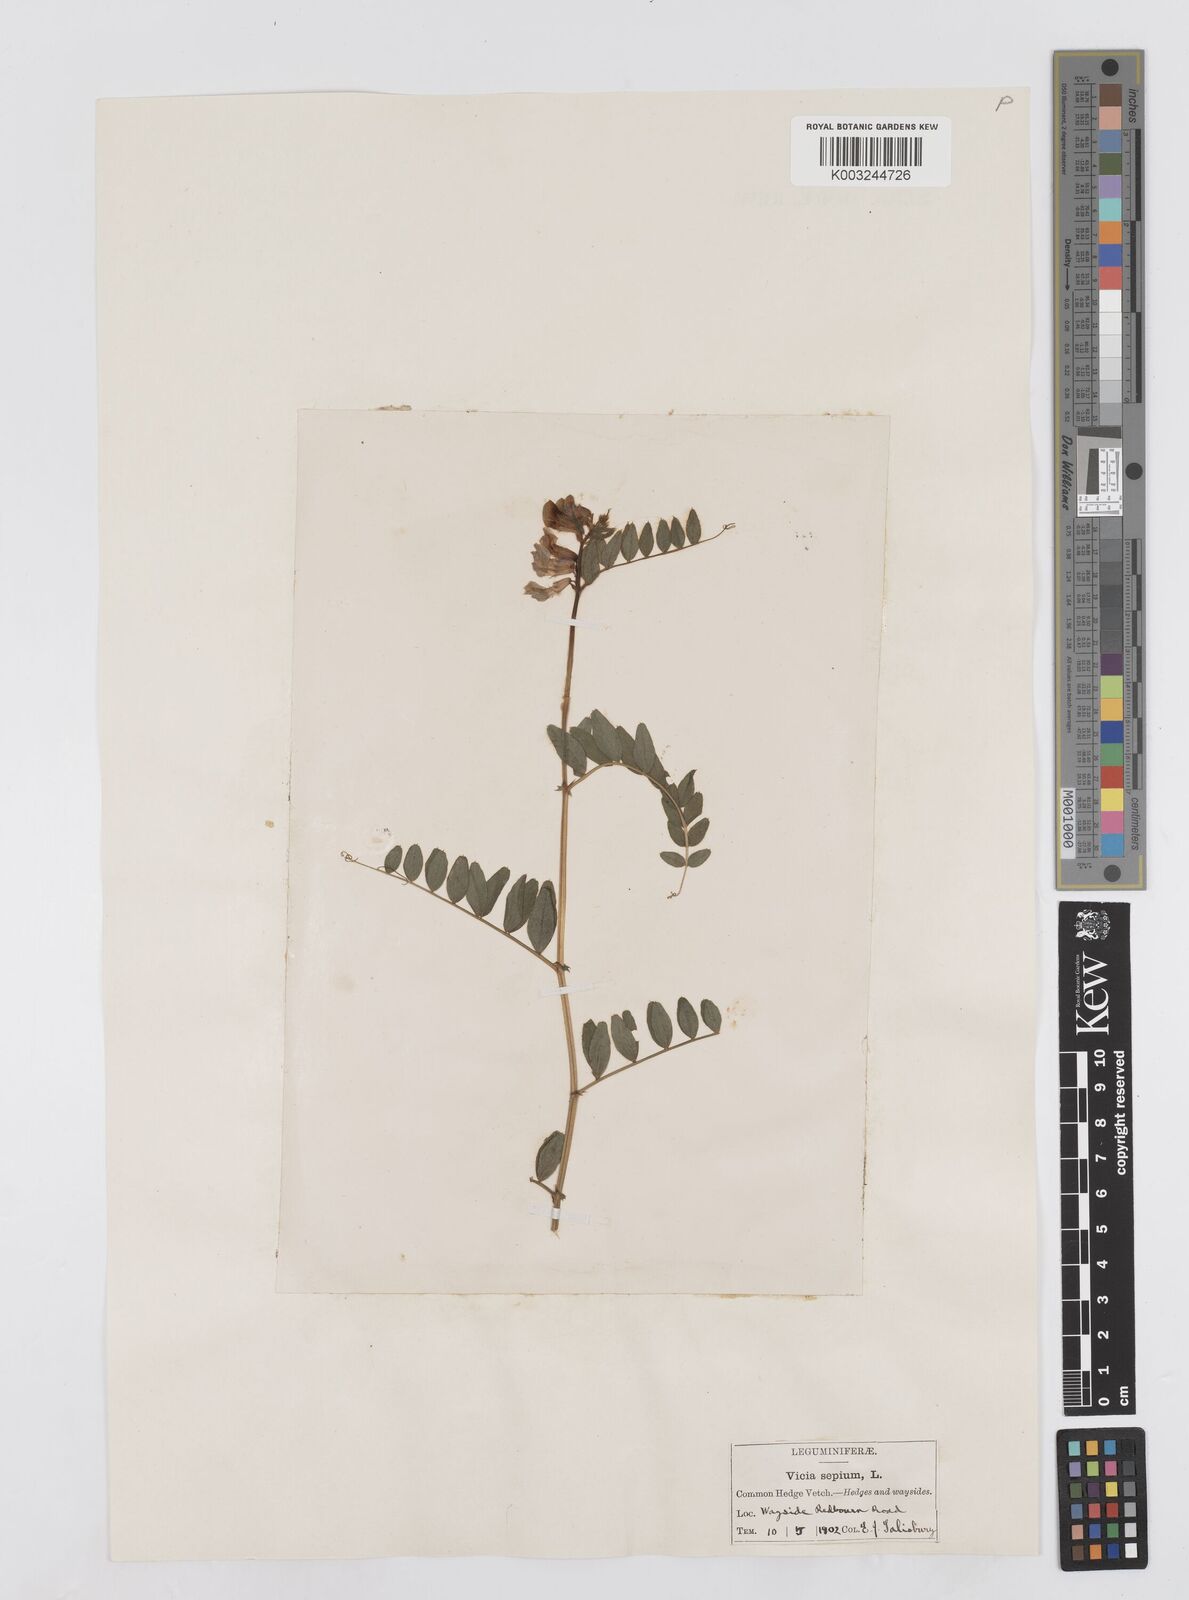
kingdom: Plantae
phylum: Tracheophyta
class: Magnoliopsida
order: Fabales
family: Fabaceae
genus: Vicia
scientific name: Vicia sepium
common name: Bush vetch
